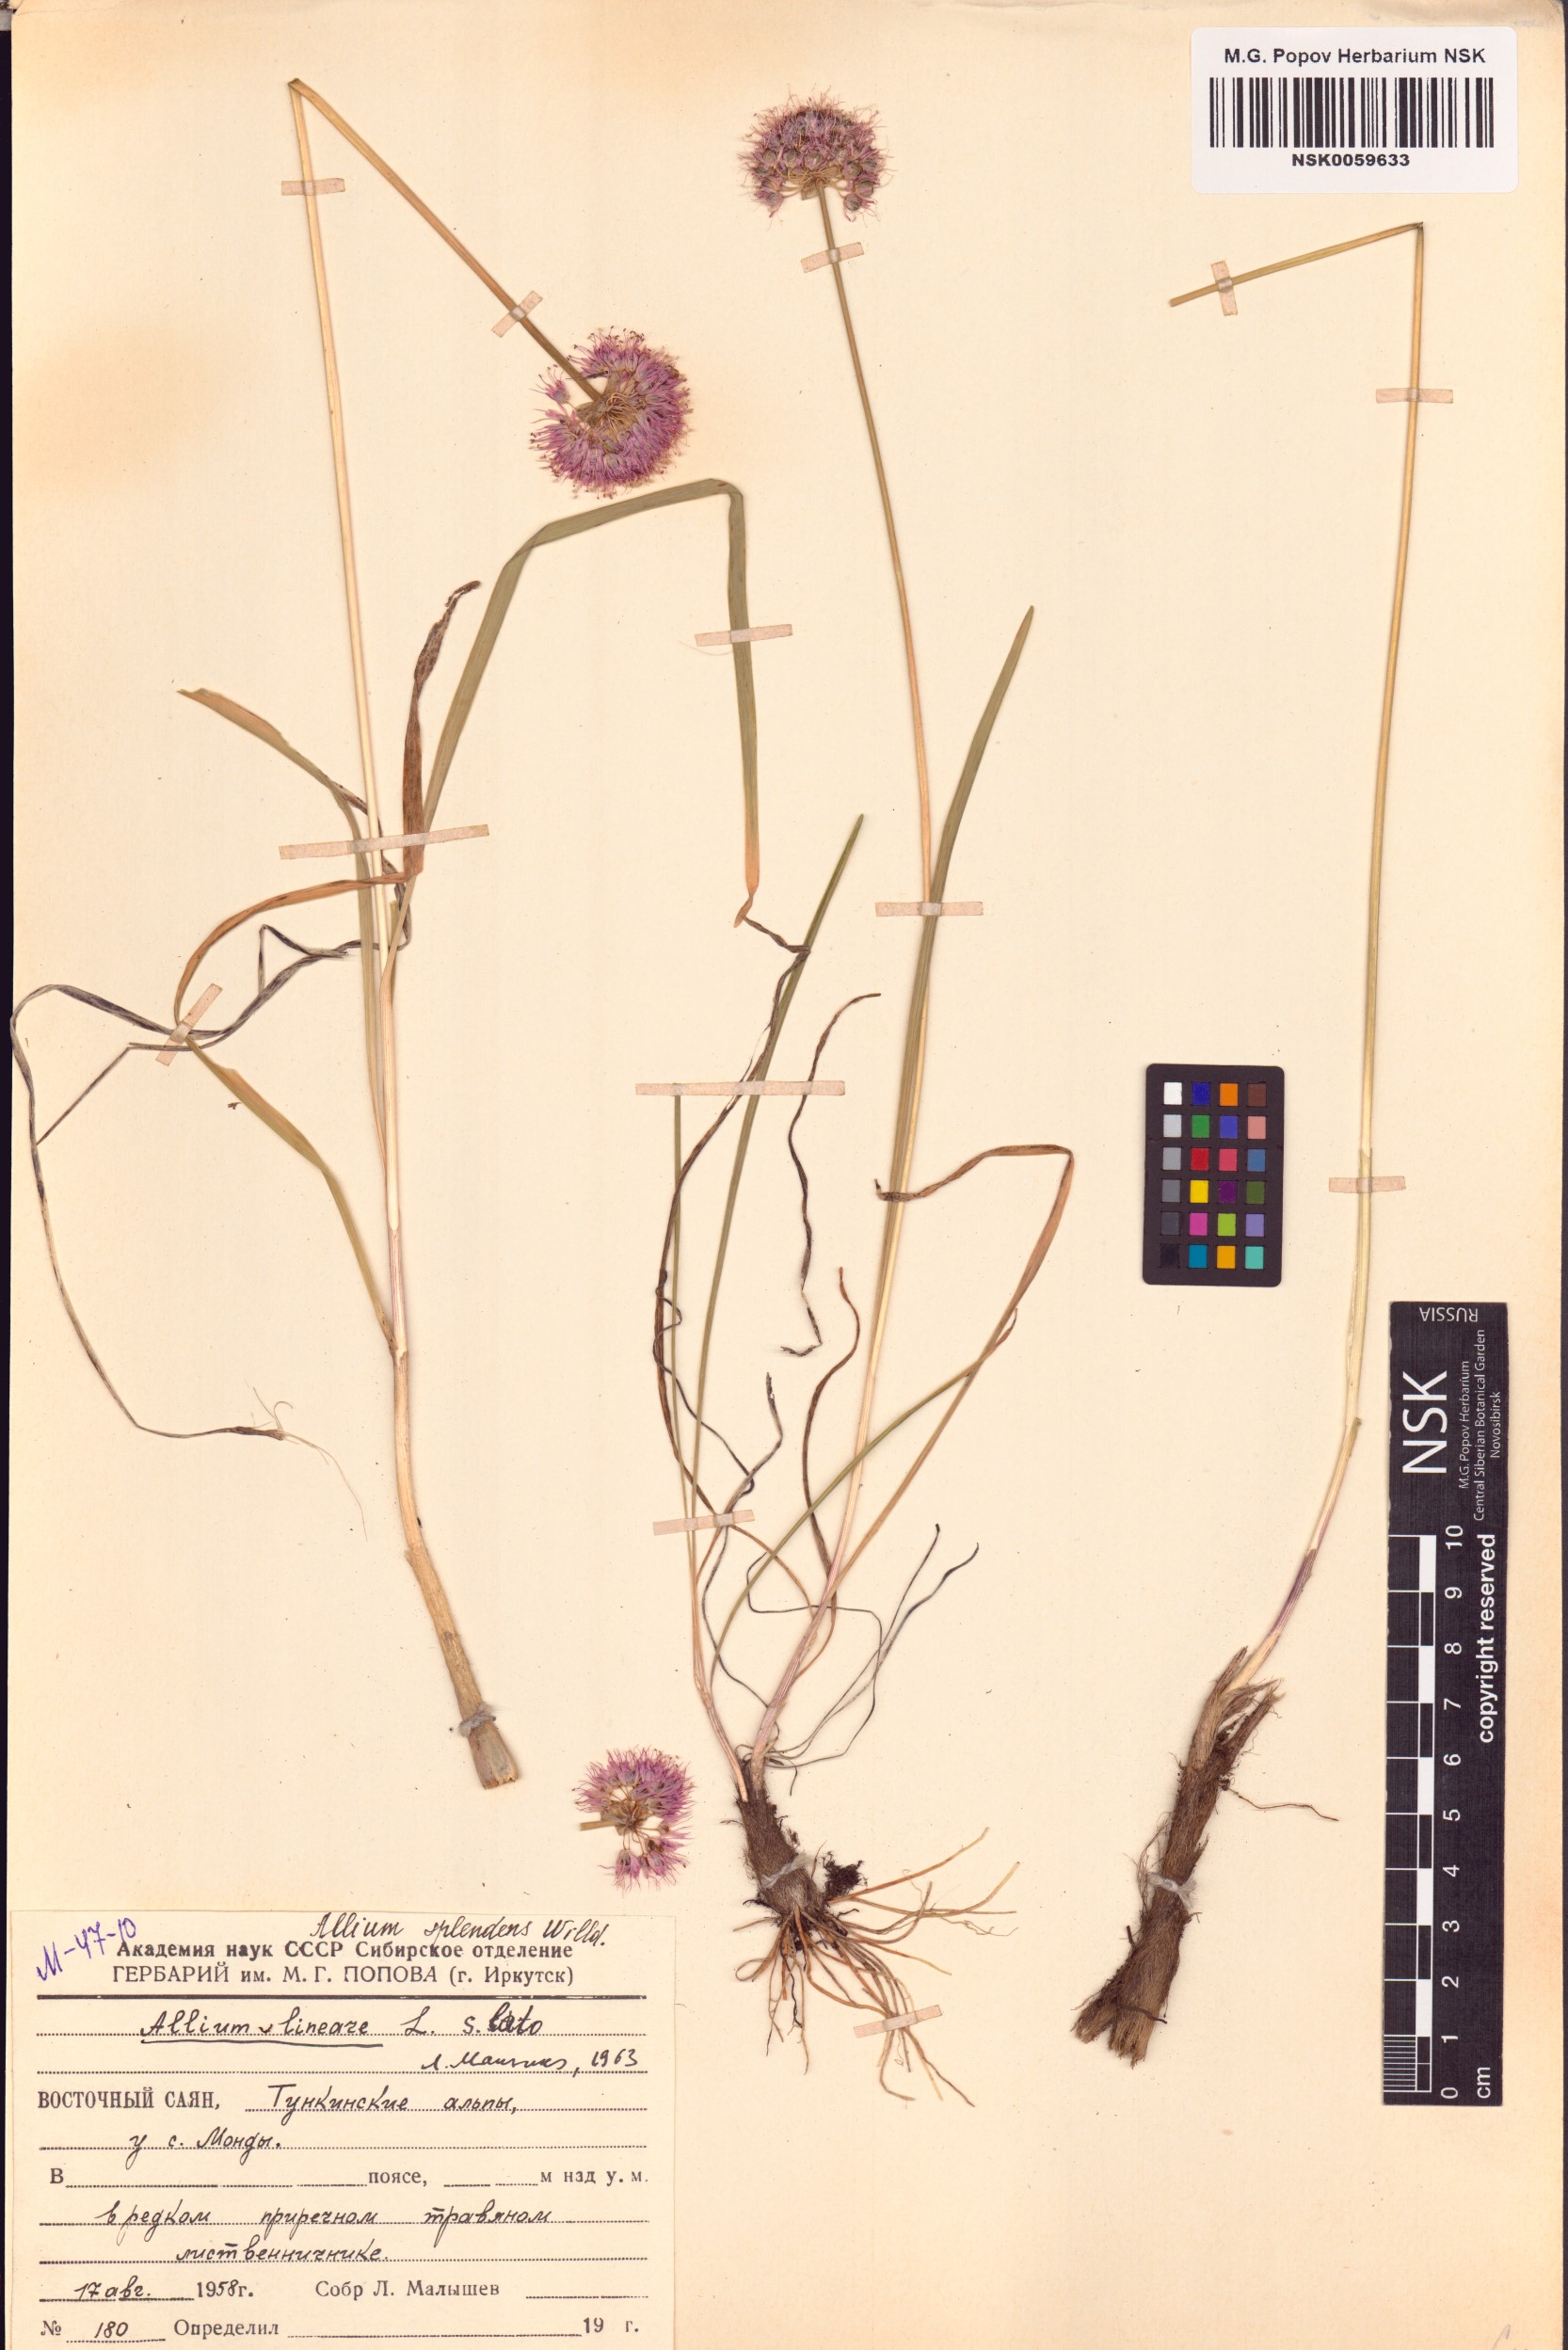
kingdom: Plantae
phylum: Tracheophyta
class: Liliopsida
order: Asparagales
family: Amaryllidaceae
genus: Allium
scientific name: Allium splendens
